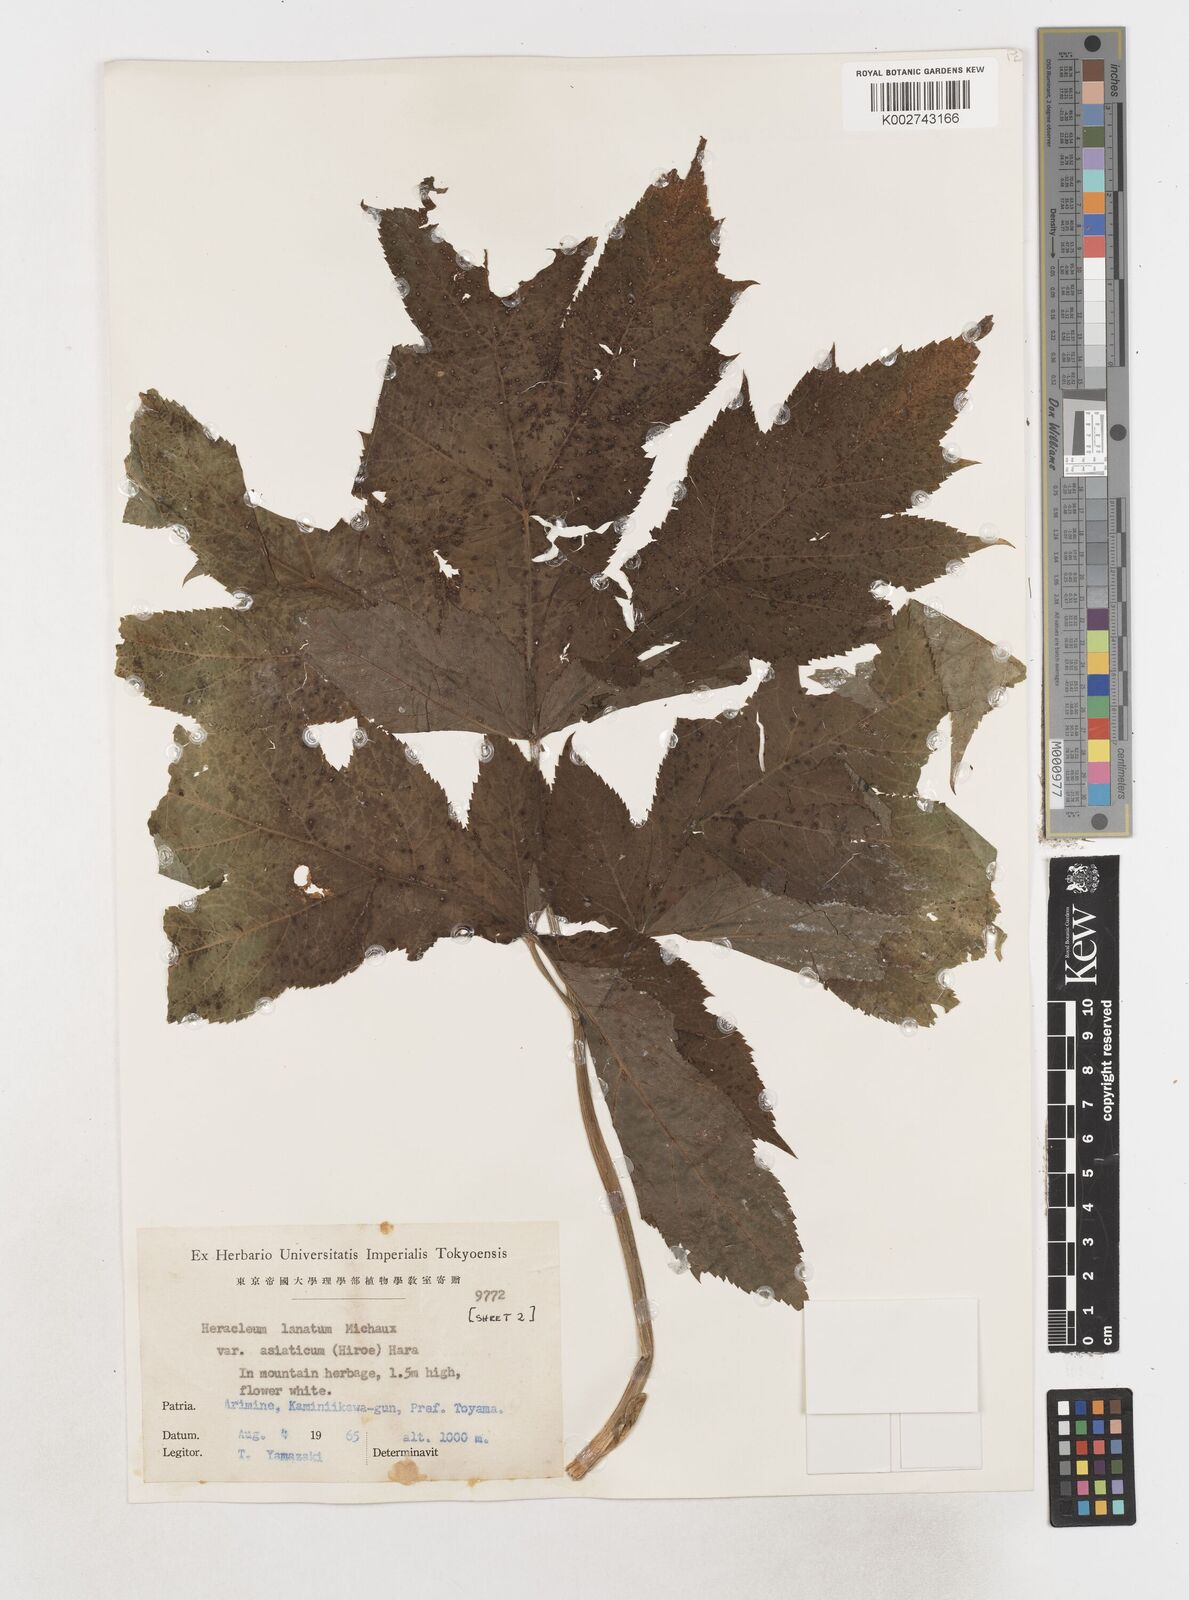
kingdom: Plantae
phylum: Tracheophyta
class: Magnoliopsida
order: Apiales
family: Apiaceae
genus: Heracleum
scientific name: Heracleum
